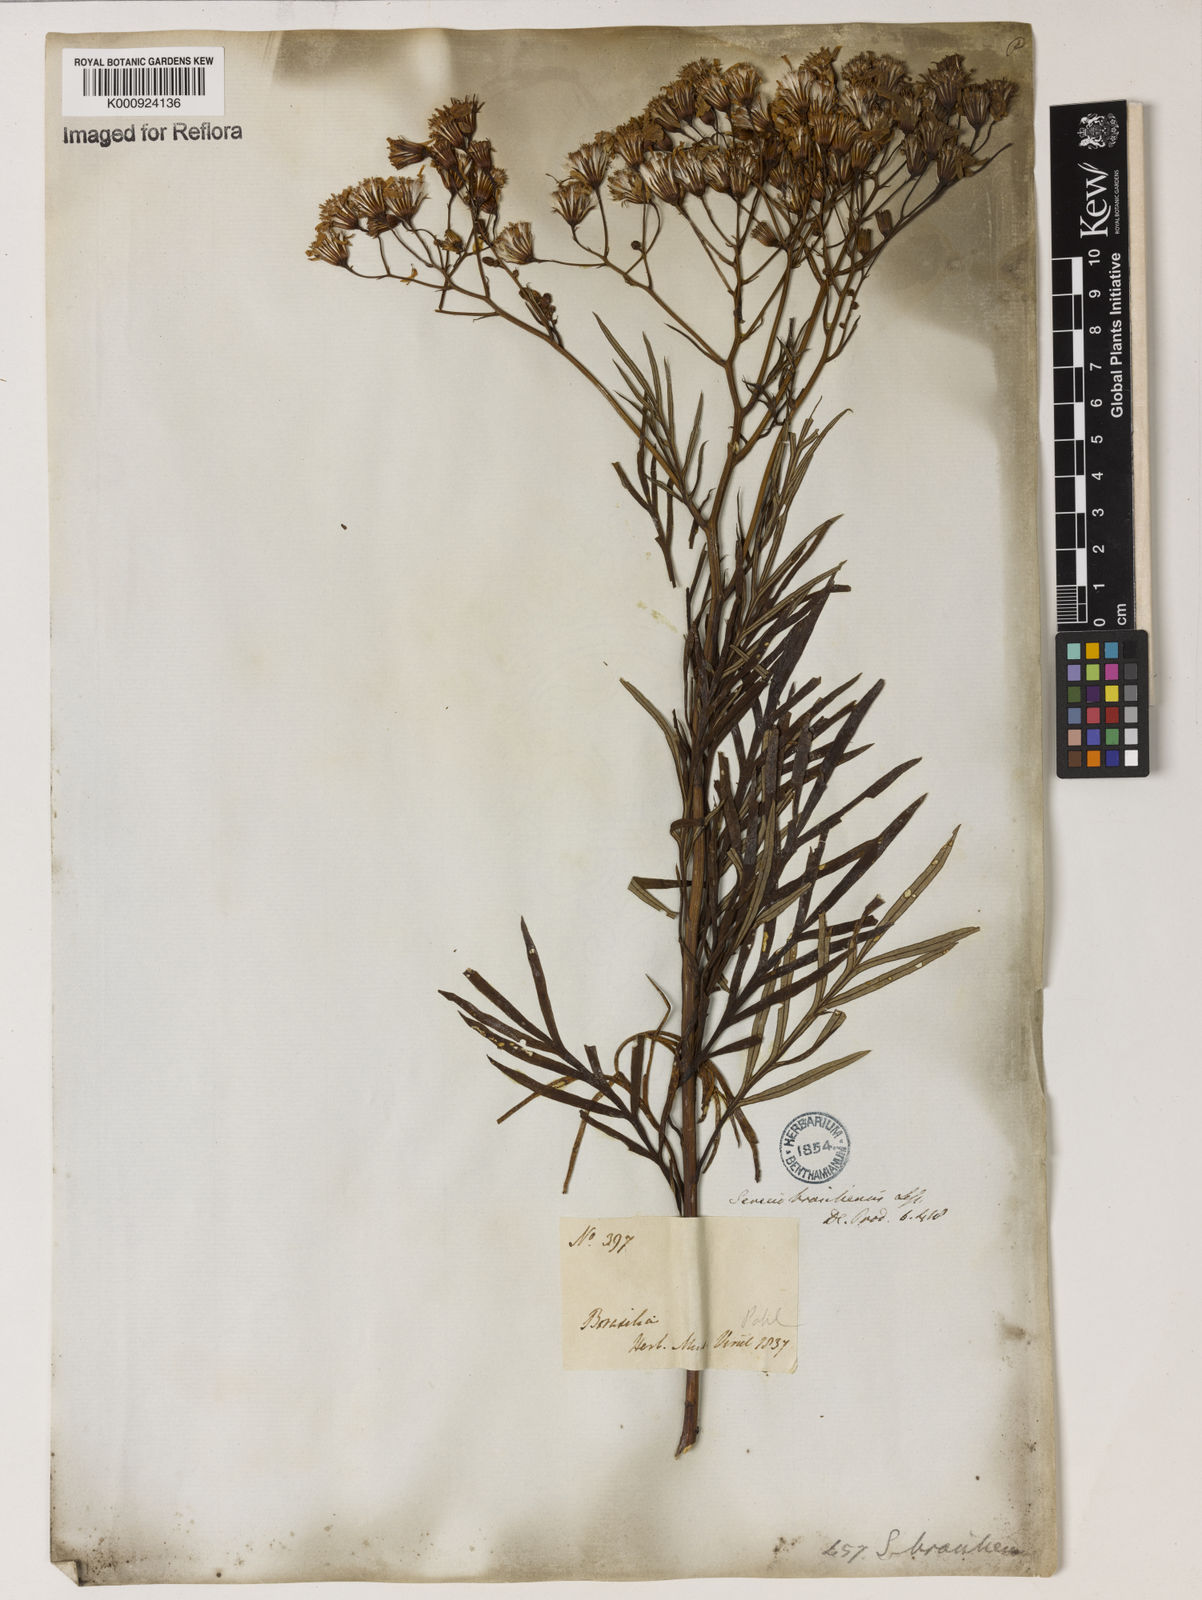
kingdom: Plantae
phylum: Tracheophyta
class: Magnoliopsida
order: Asterales
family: Asteraceae
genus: Senecio
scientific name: Senecio brasiliensis
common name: Hemp-leaf ragwort
